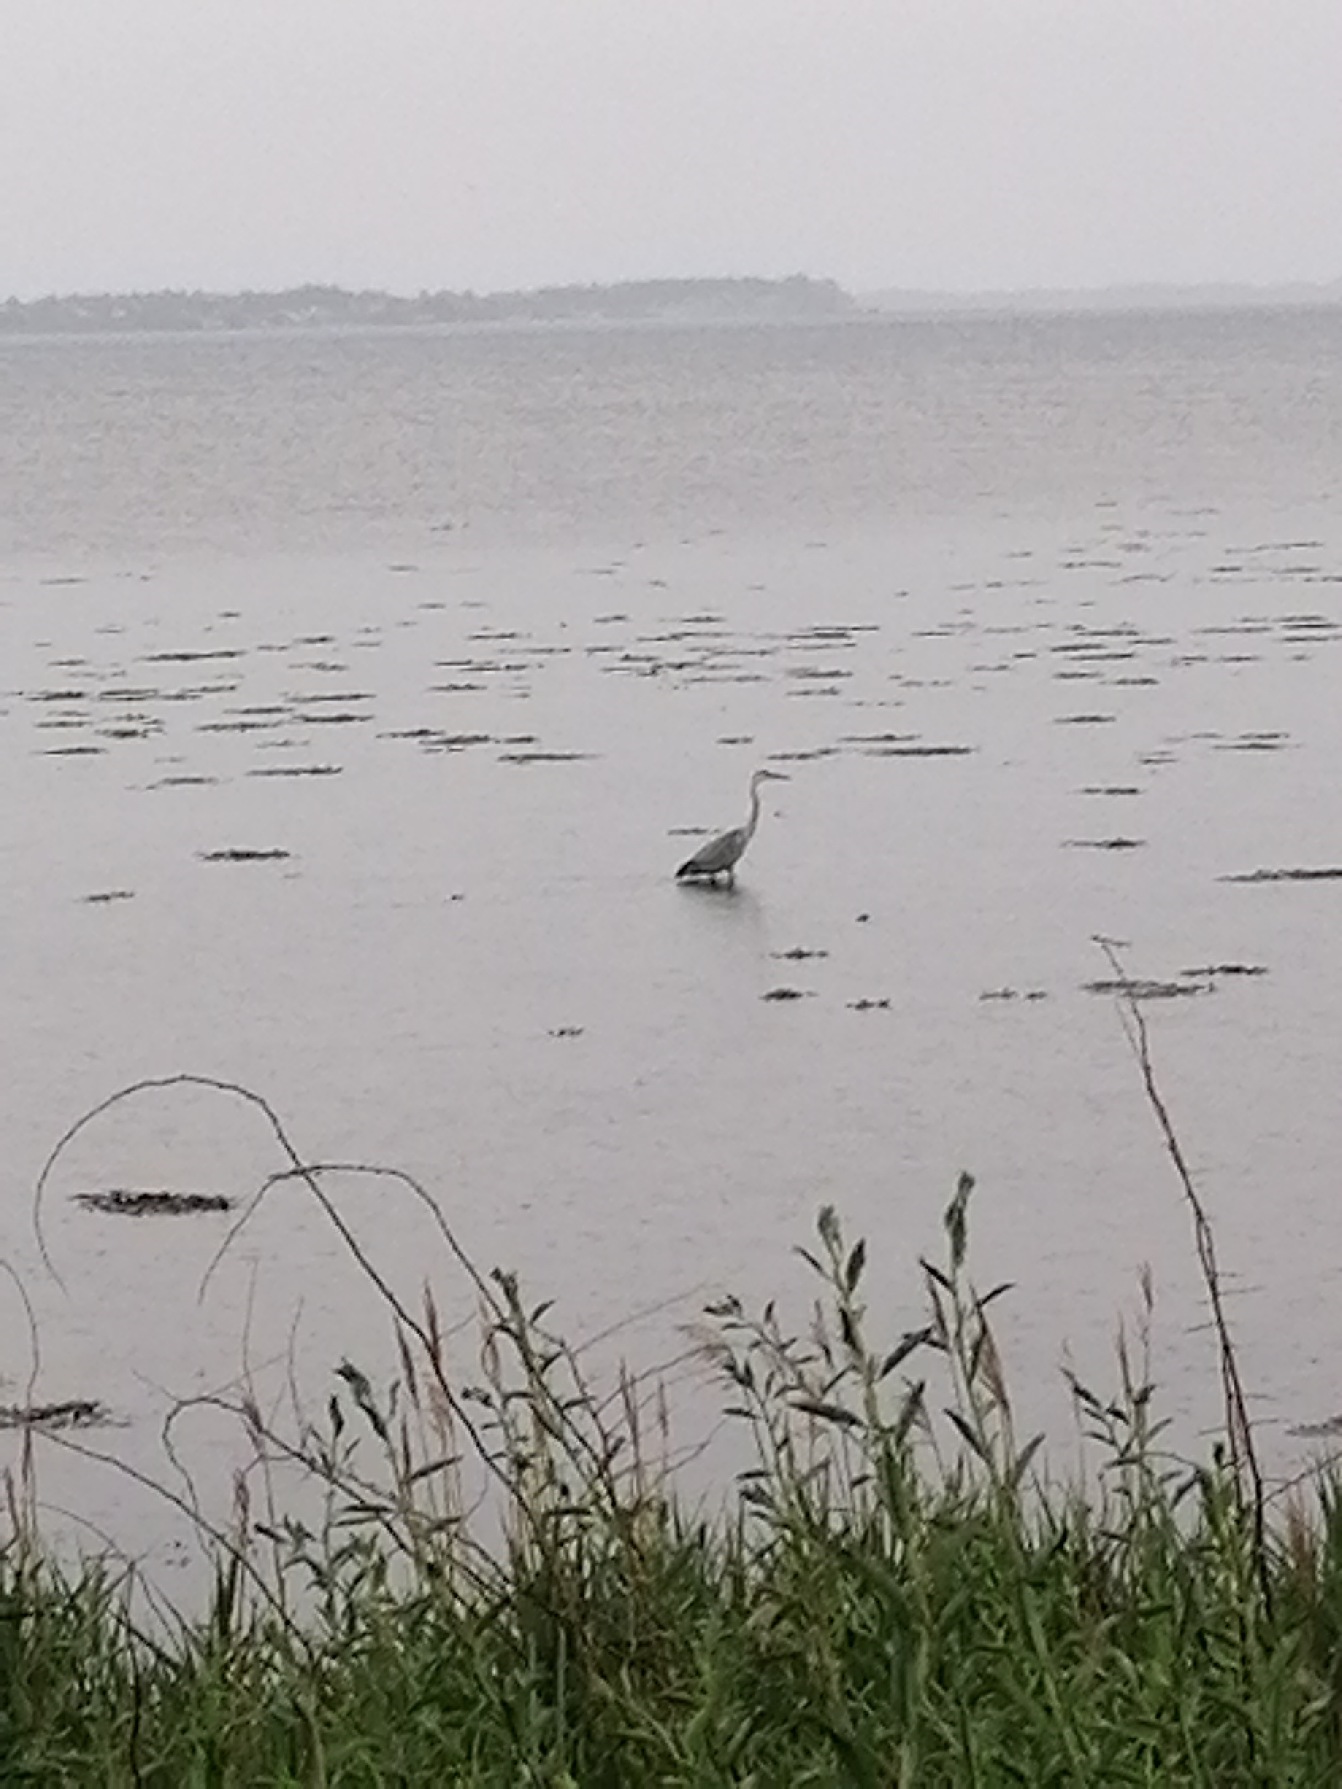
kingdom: Animalia
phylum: Chordata
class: Aves
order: Pelecaniformes
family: Ardeidae
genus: Ardea
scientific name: Ardea cinerea
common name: Fiskehejre
